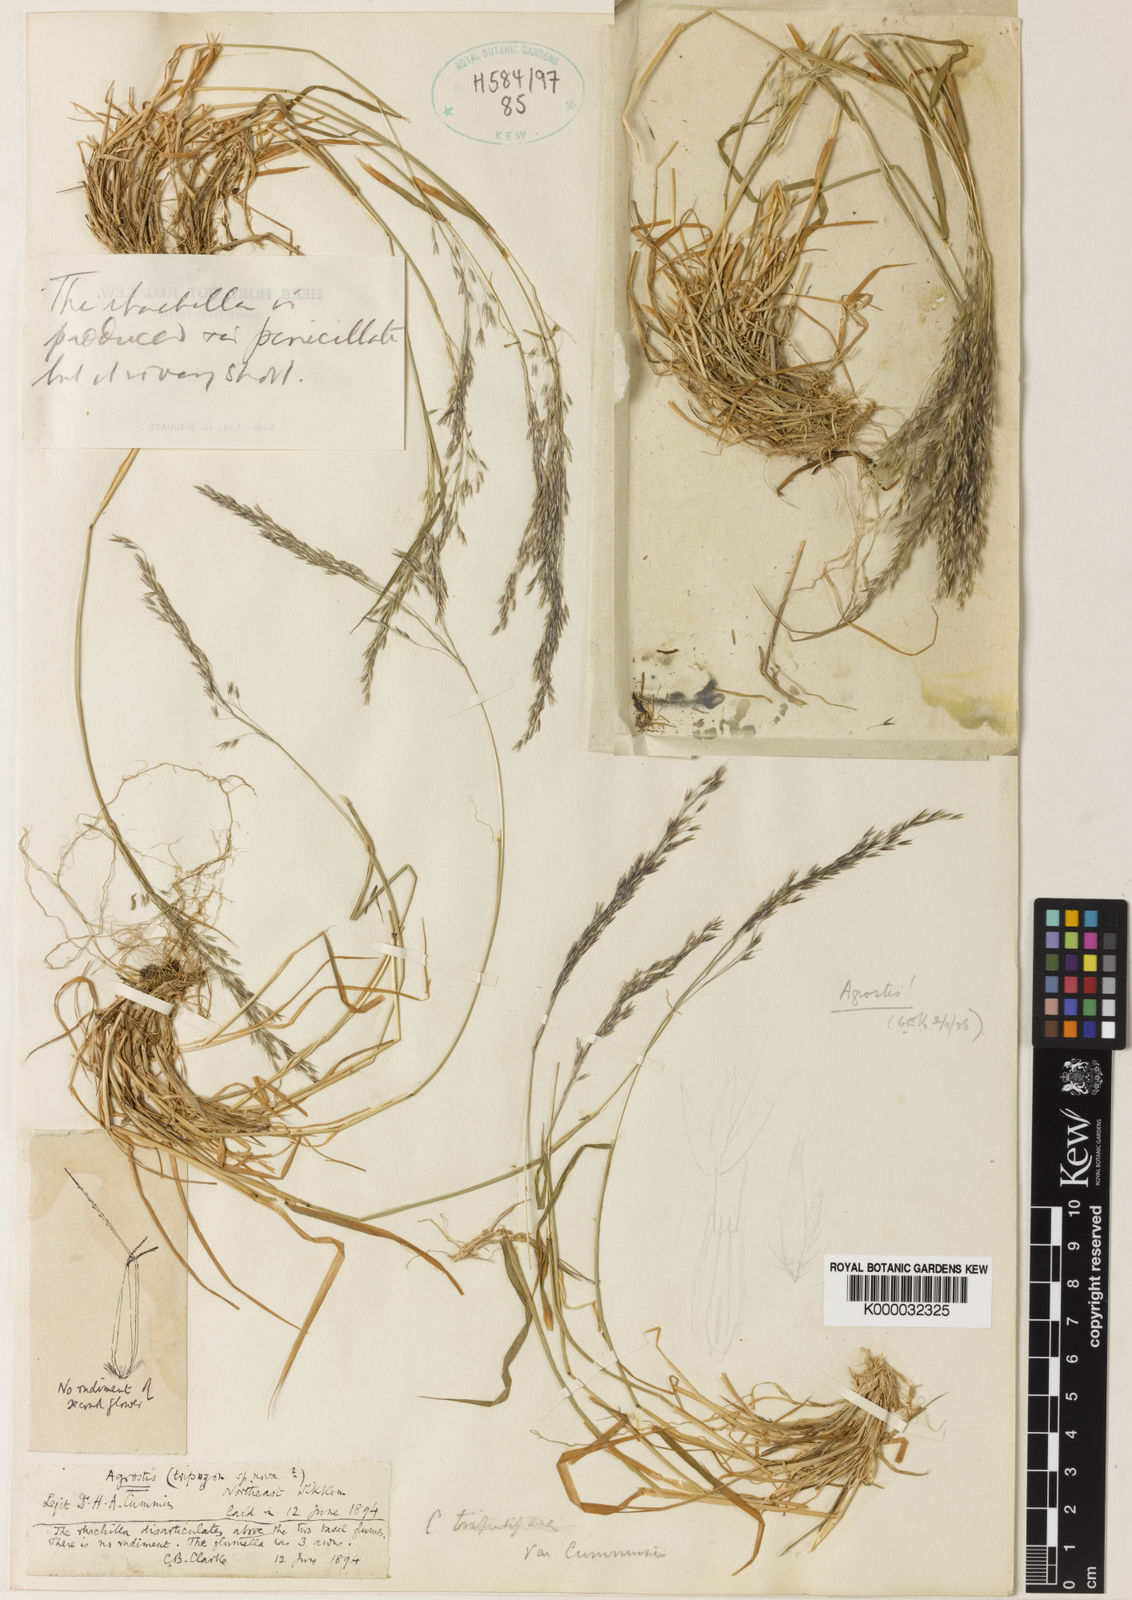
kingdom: Plantae
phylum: Tracheophyta
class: Liliopsida
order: Poales
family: Poaceae
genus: Calamagrostis
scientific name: Calamagrostis filiformis
